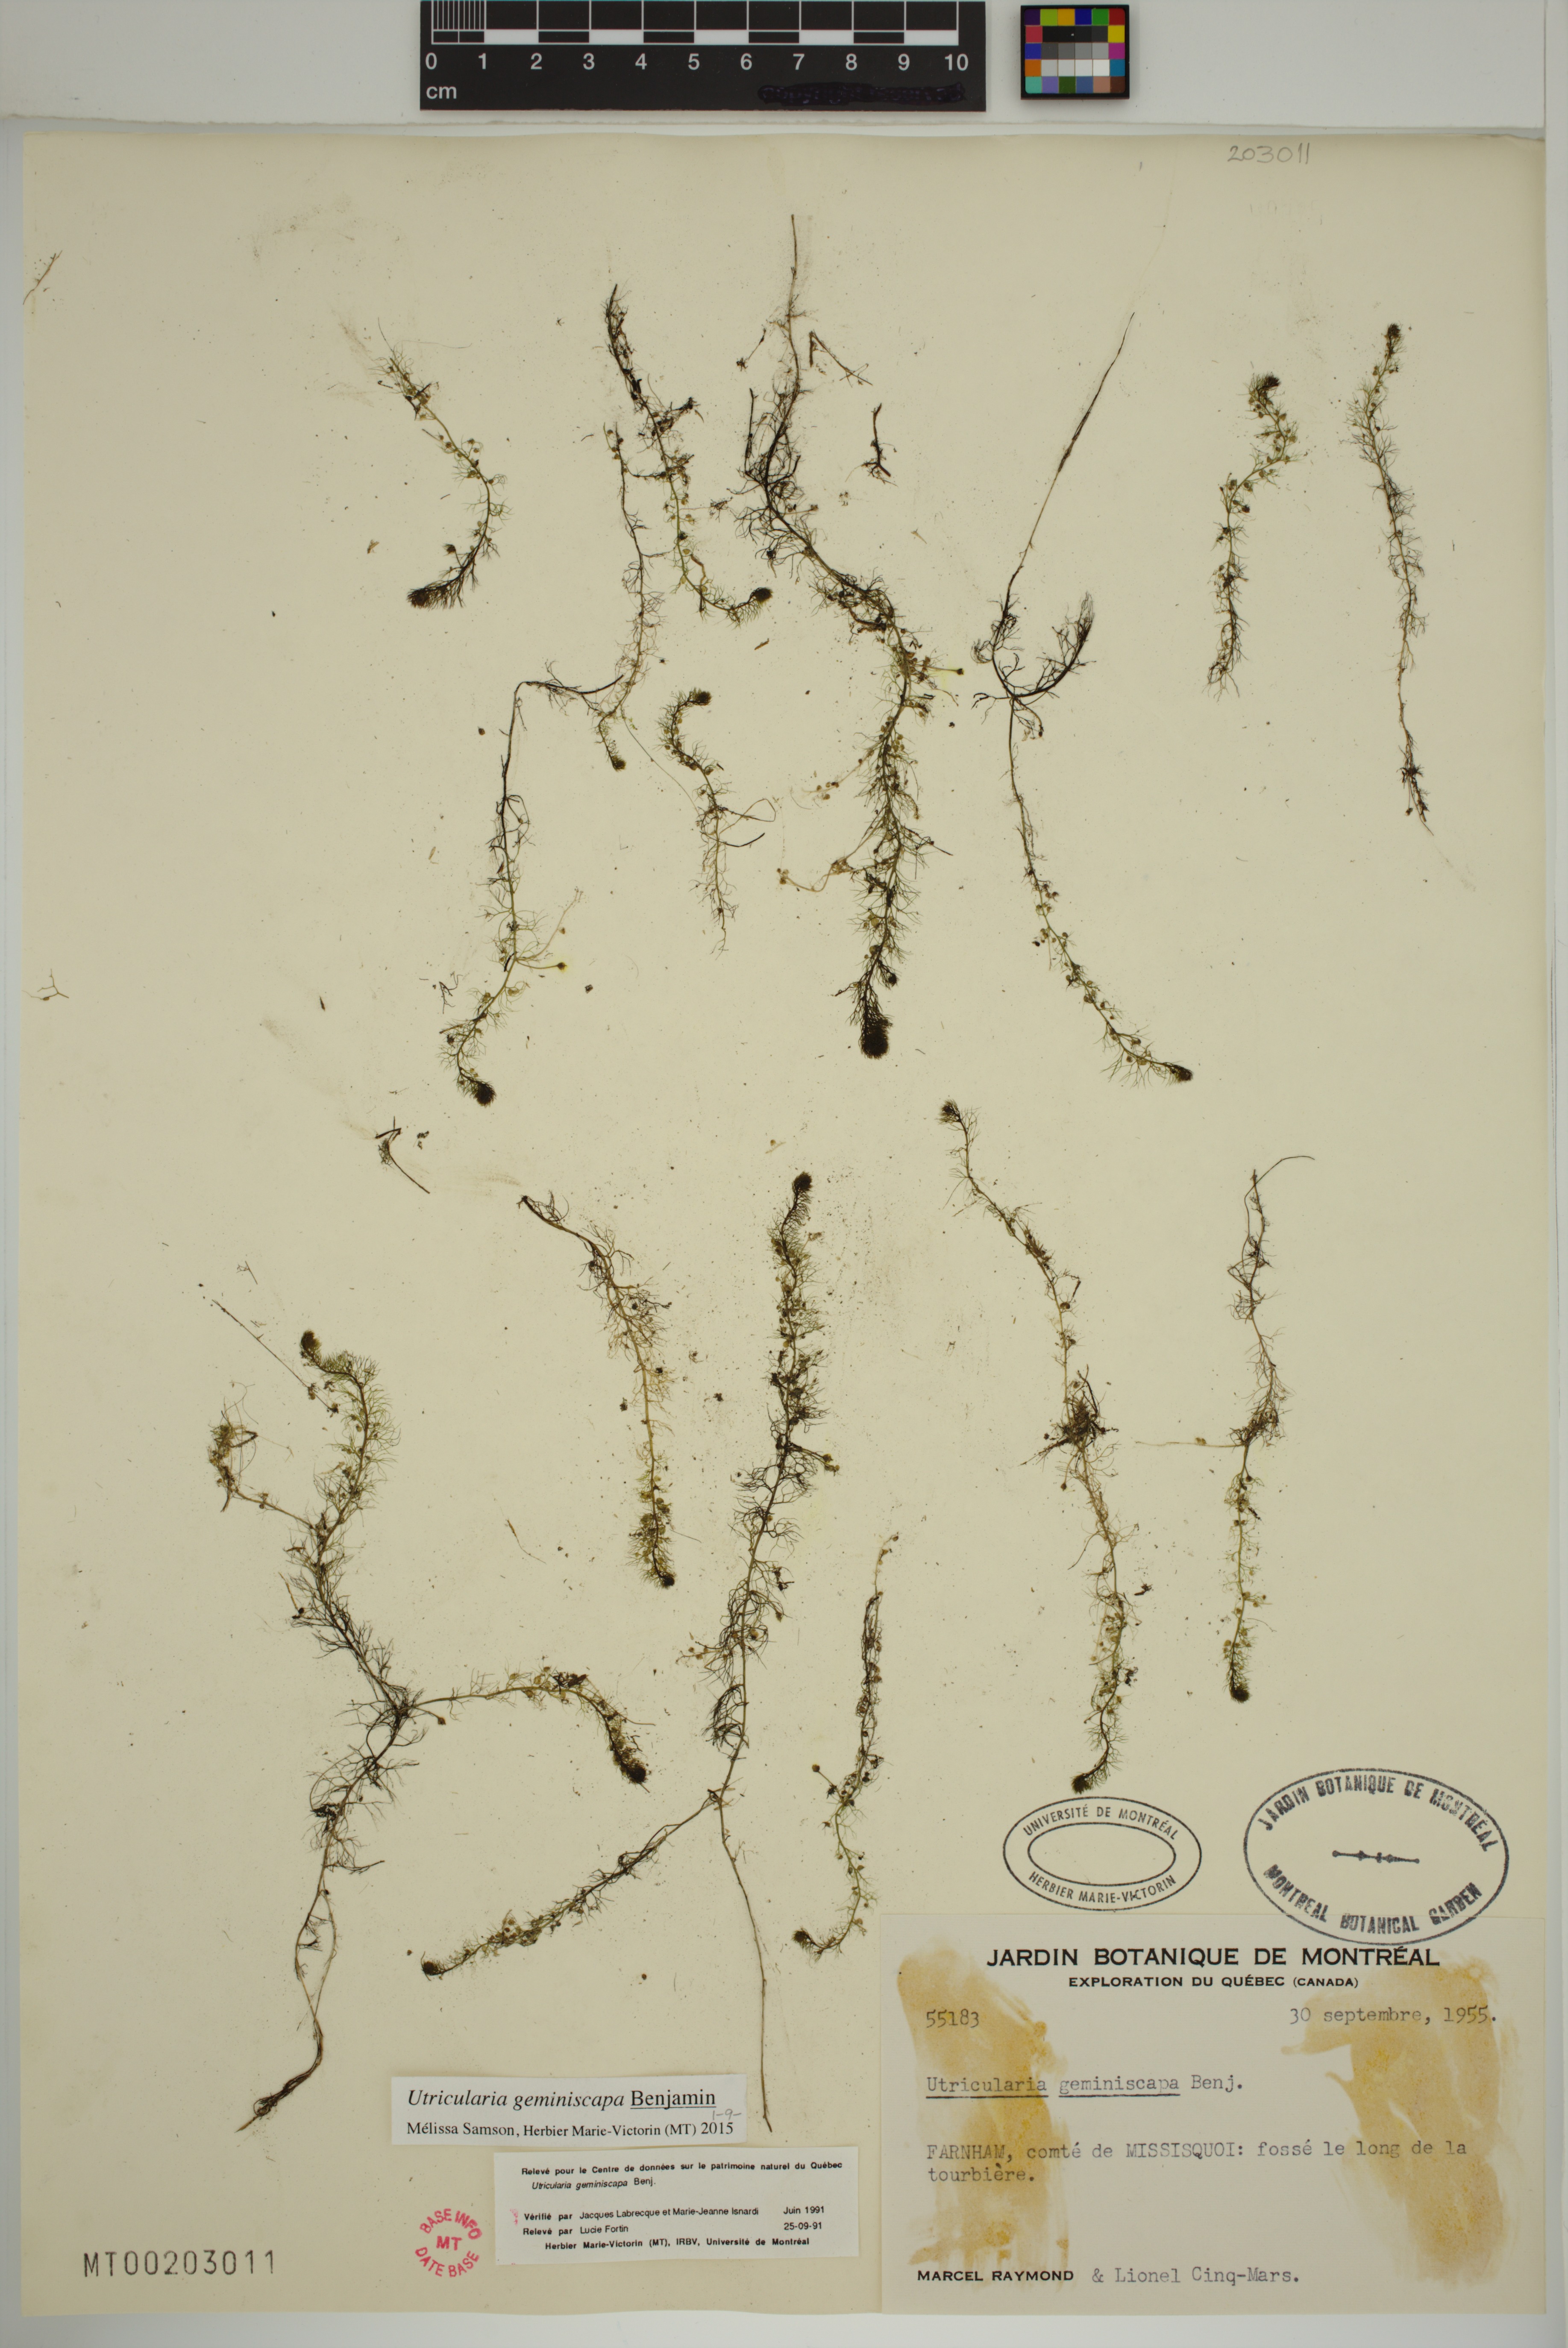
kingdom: Plantae
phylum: Tracheophyta
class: Magnoliopsida
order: Lamiales
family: Lentibulariaceae
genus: Utricularia
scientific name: Utricularia geminiscapa
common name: Hidden-fruit bladderwort
